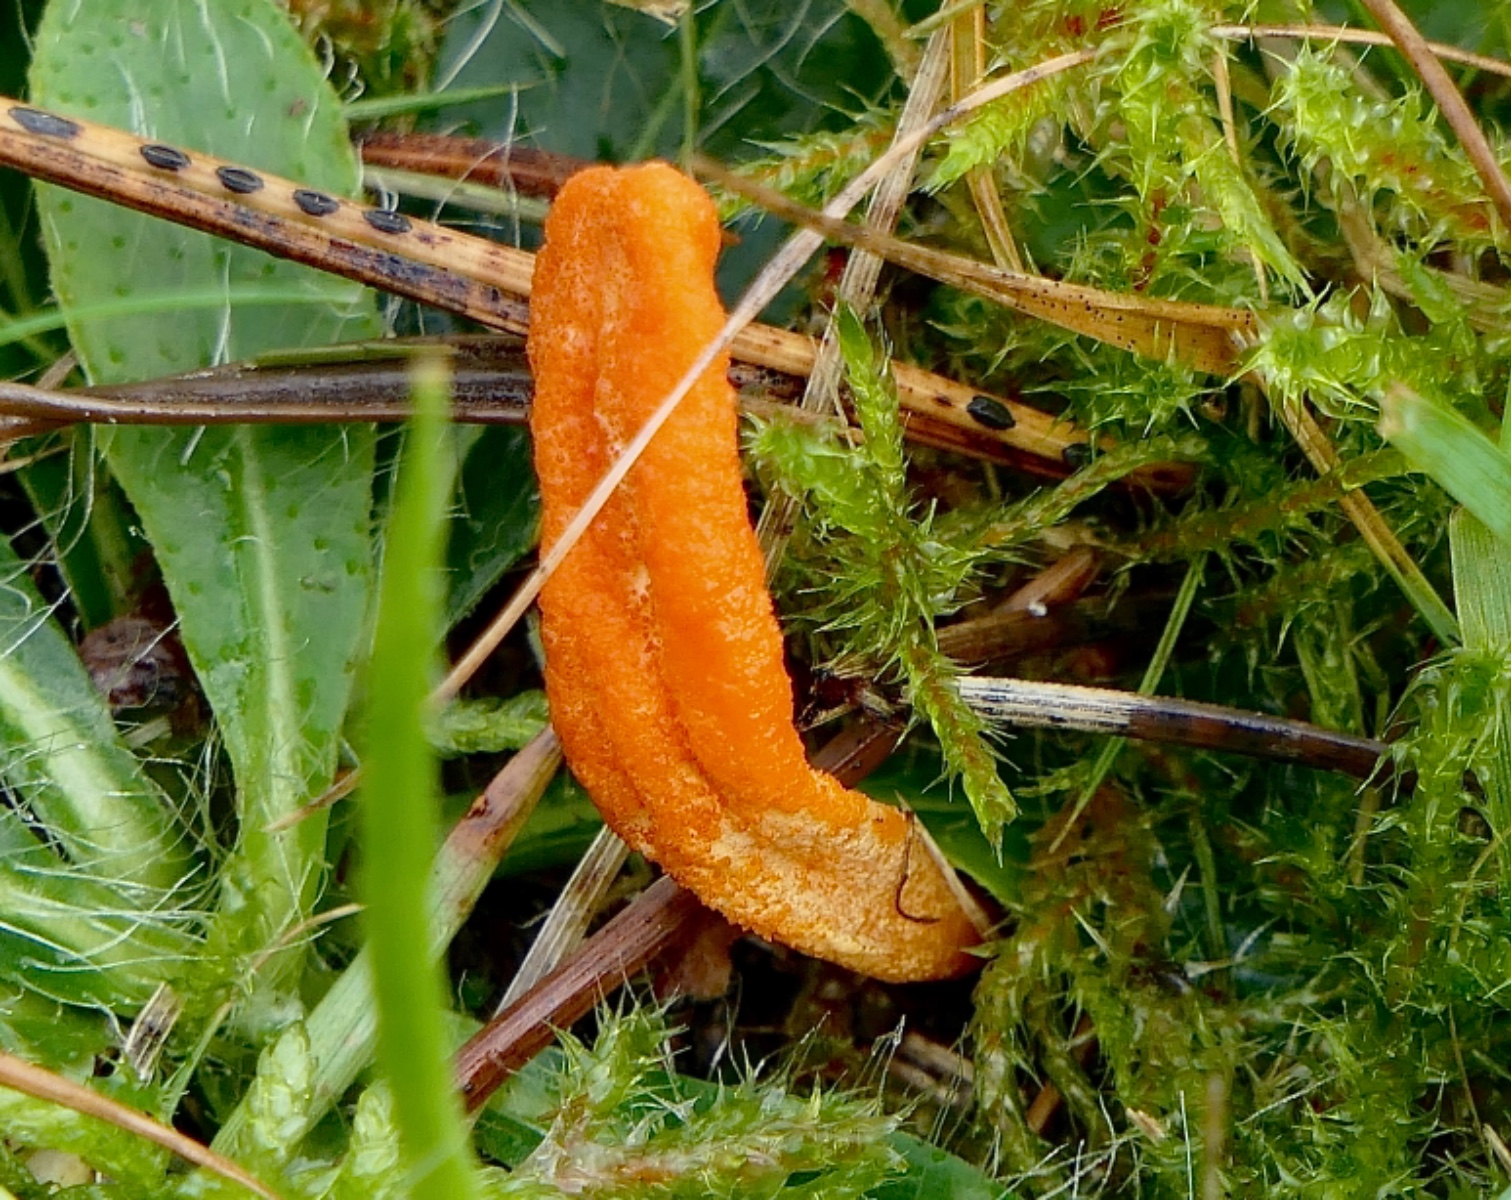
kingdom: Fungi
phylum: Ascomycota
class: Sordariomycetes
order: Hypocreales
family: Cordycipitaceae
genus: Cordyceps
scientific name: Cordyceps militaris
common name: puppe-snyltekølle
